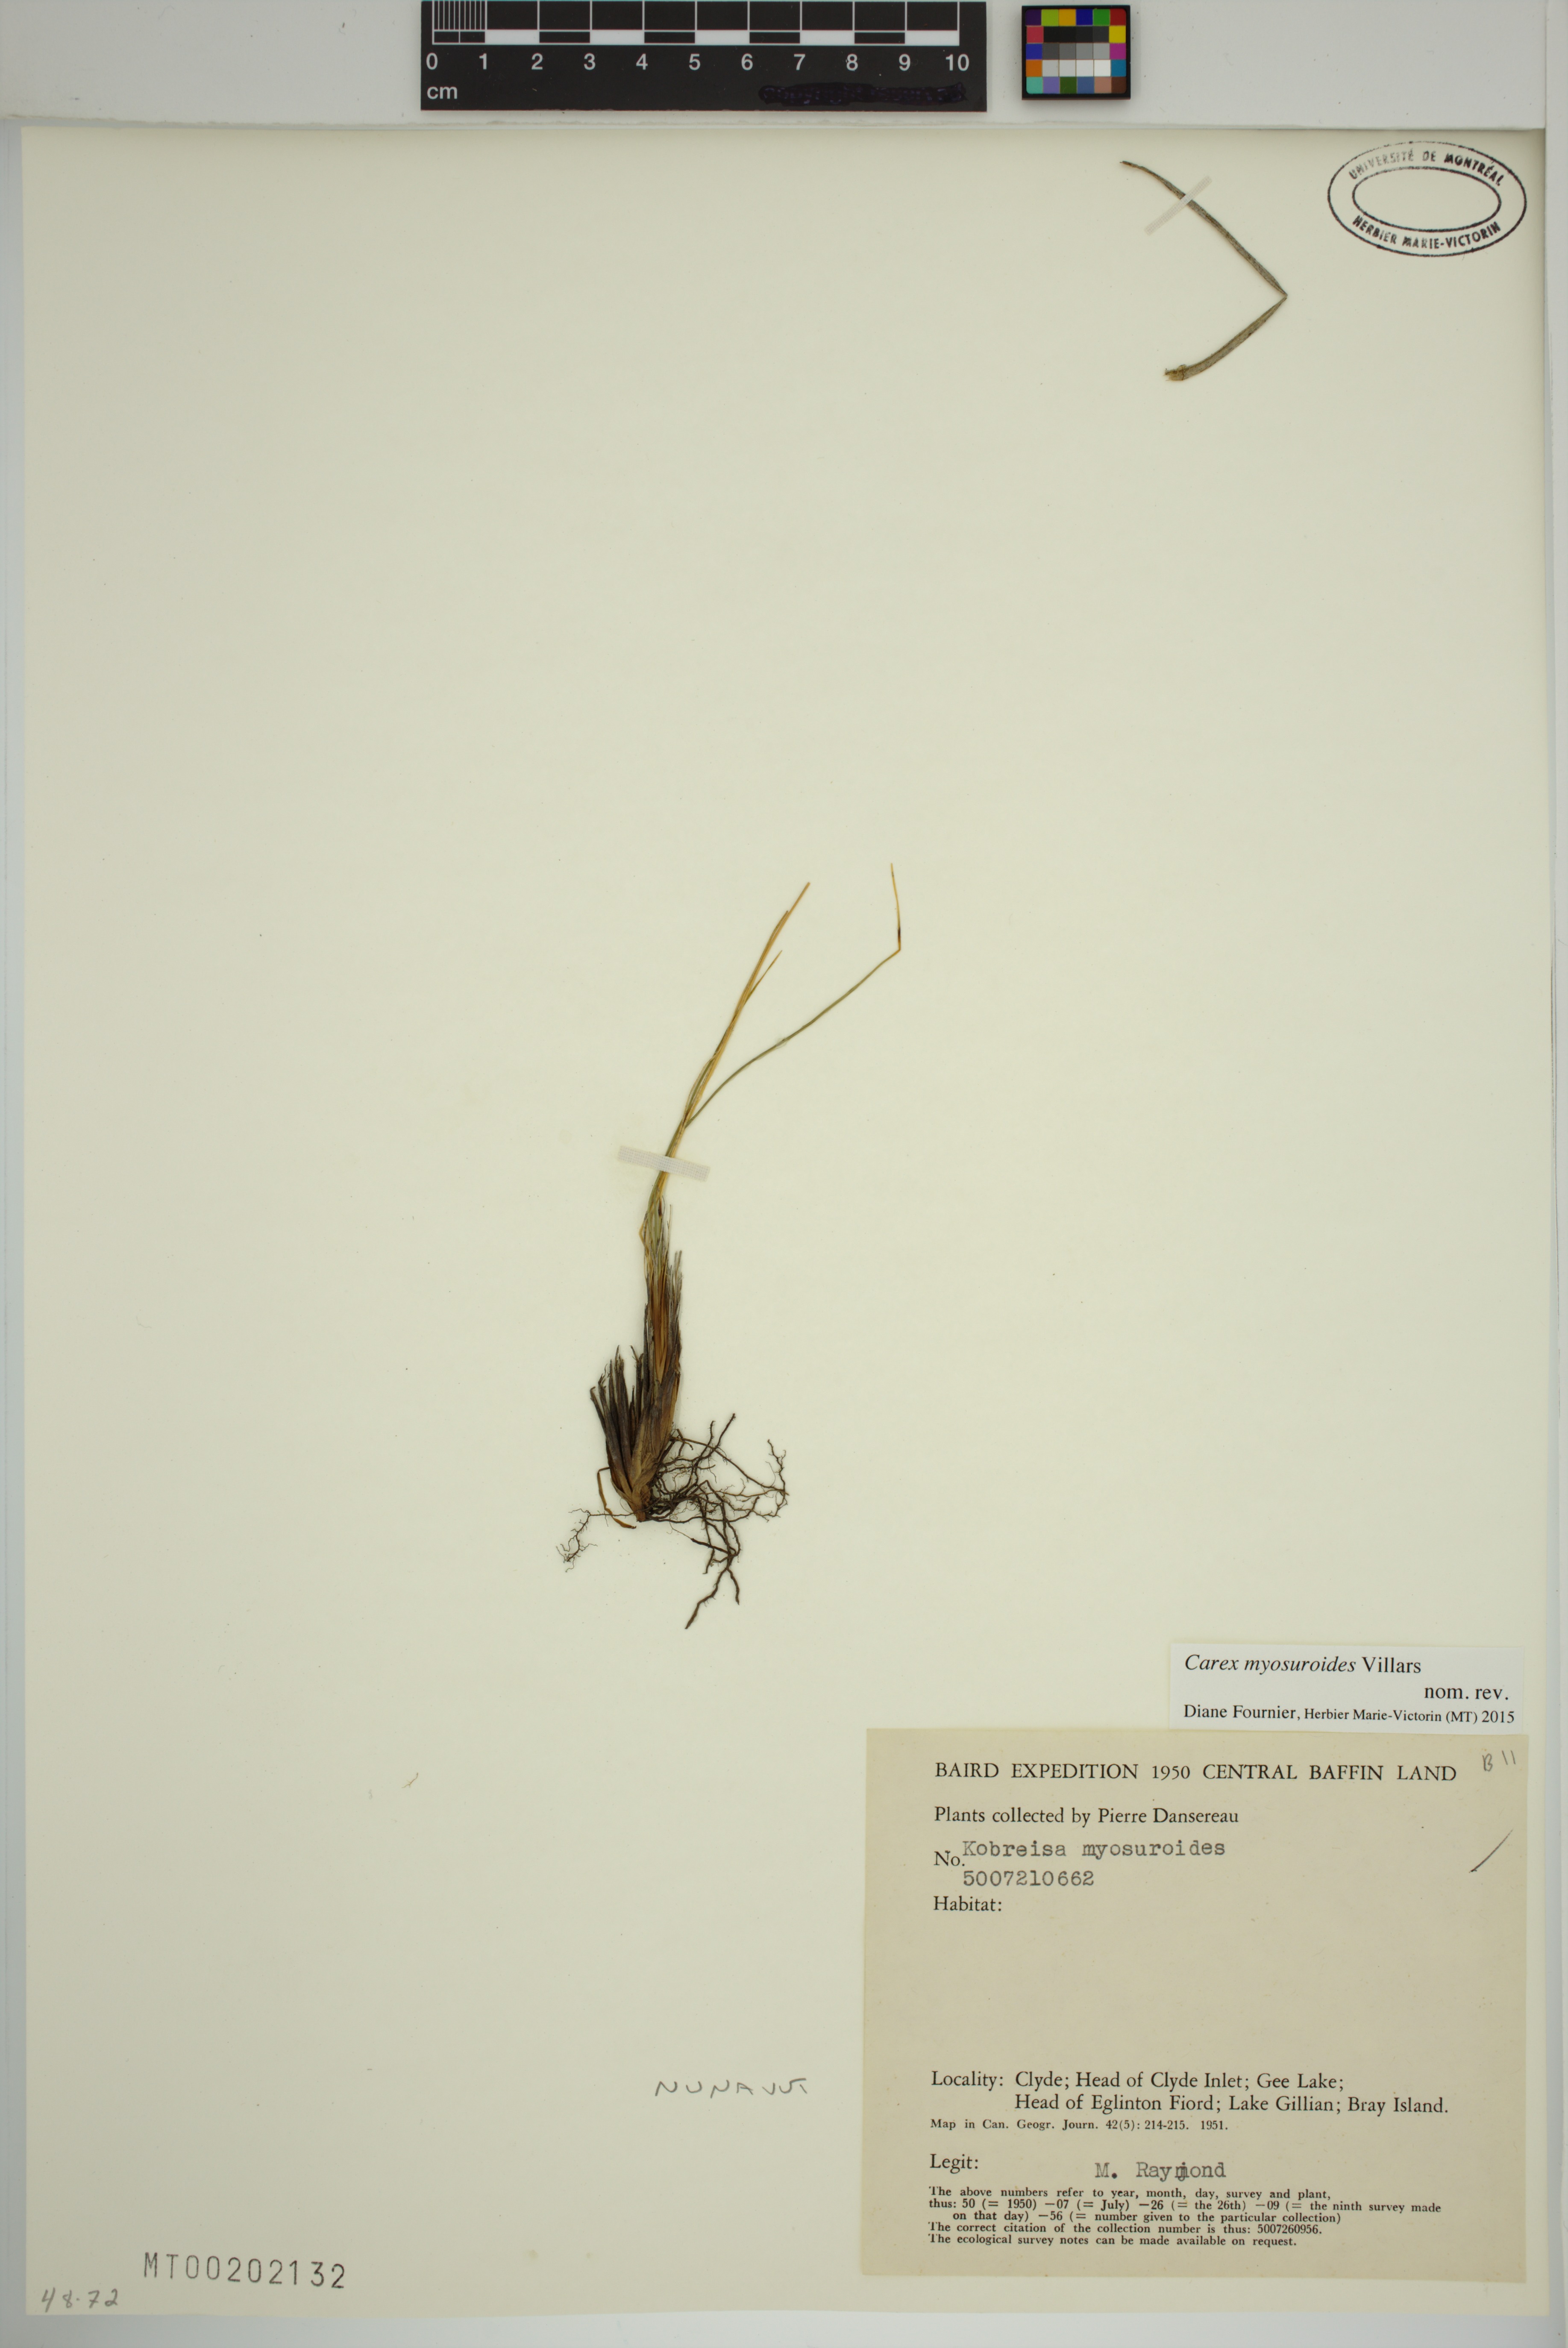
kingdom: Plantae
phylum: Tracheophyta
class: Liliopsida
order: Poales
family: Cyperaceae
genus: Carex
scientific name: Carex myosuroides
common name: Bellard's bog sedge
